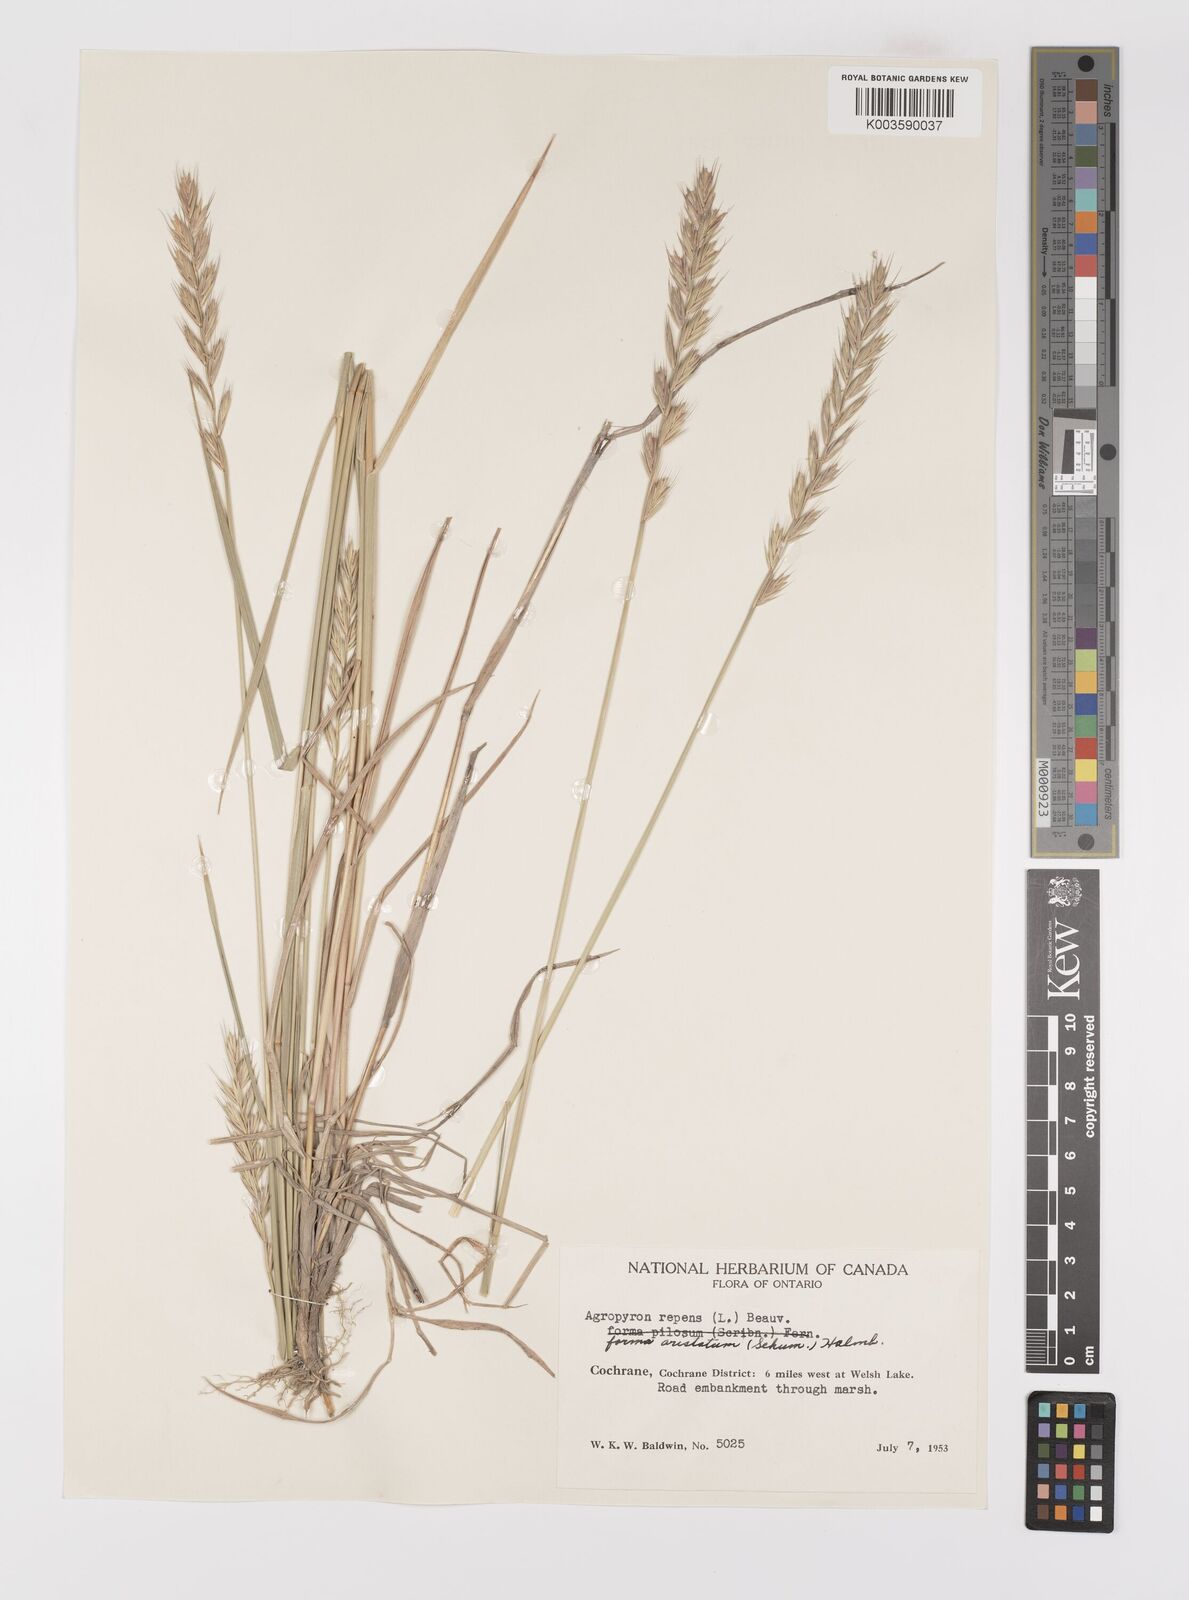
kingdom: Plantae
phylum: Tracheophyta
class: Liliopsida
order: Poales
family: Poaceae
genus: Elymus
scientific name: Elymus repens
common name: Quackgrass
